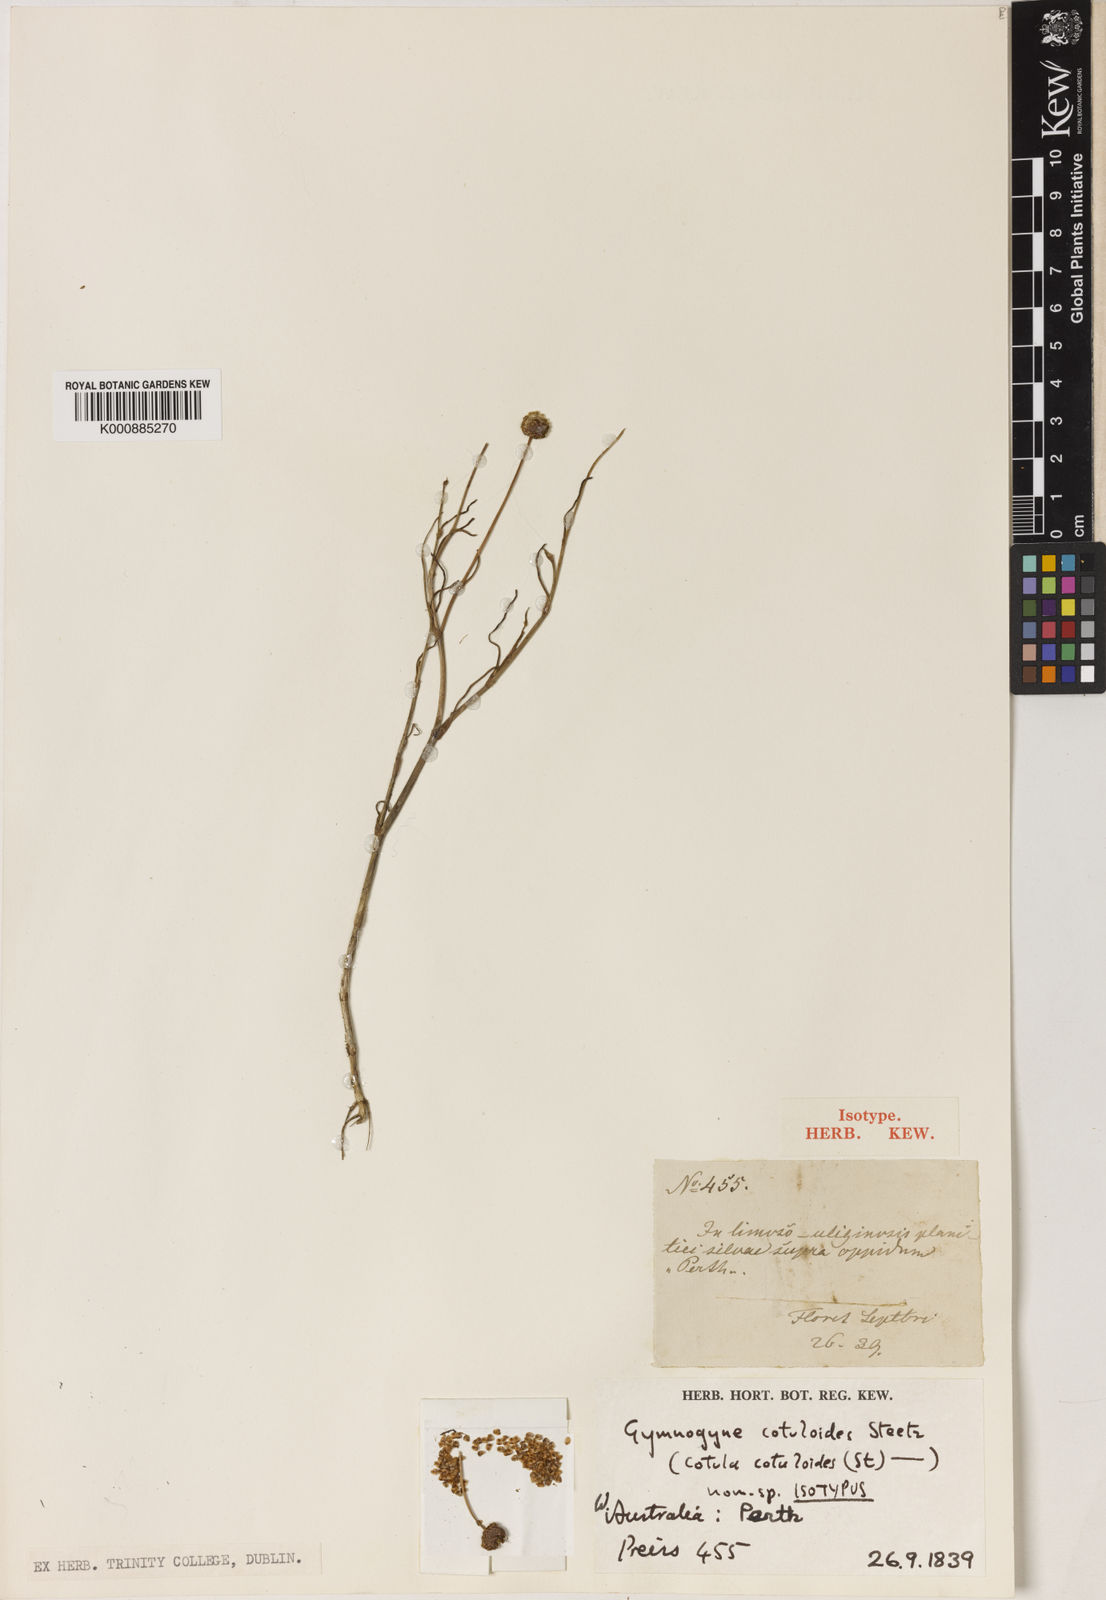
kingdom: Plantae
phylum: Tracheophyta
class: Magnoliopsida
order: Asterales
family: Asteraceae
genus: Cotula
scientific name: Cotula cotuloides
